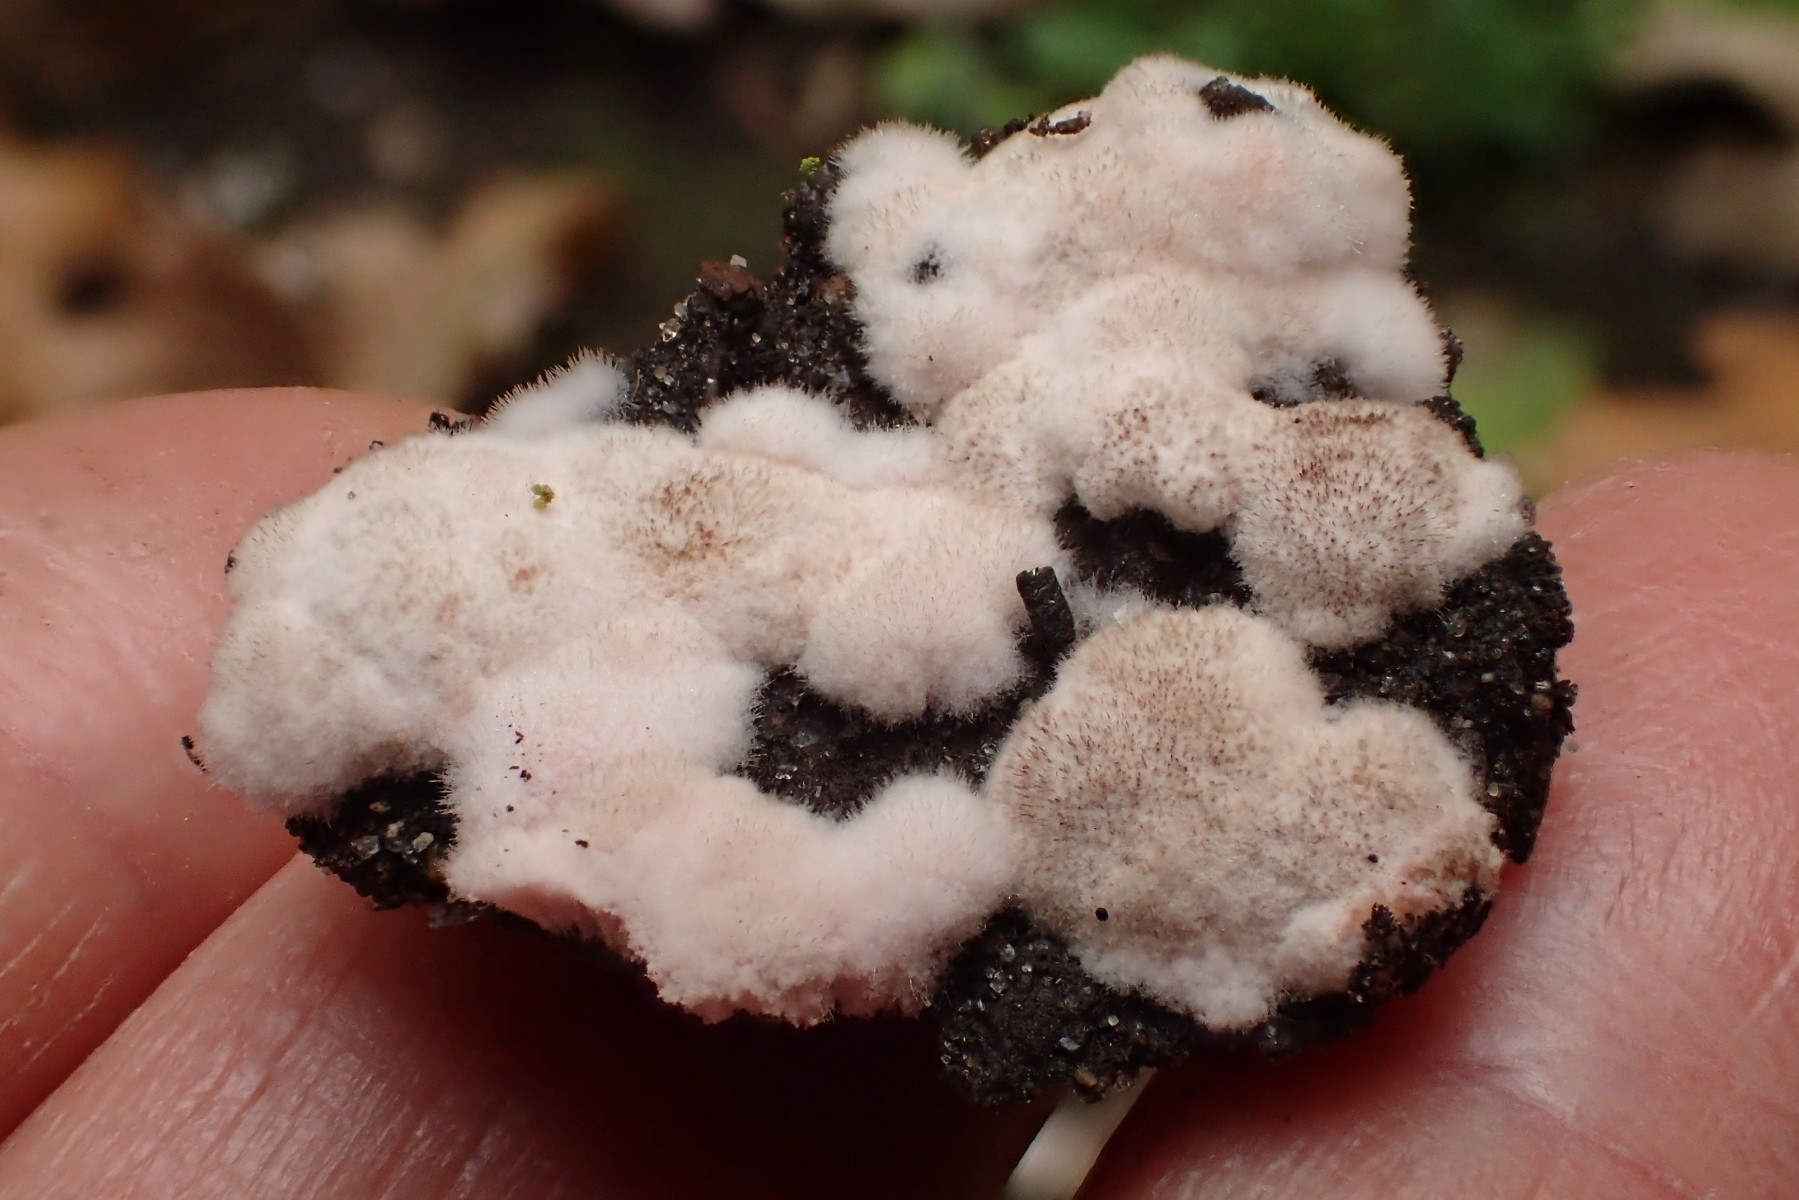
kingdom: Fungi
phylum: Ascomycota
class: Pezizomycetes
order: Pezizales
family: Pezizaceae
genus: Chromelosporium
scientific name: Chromelosporium
